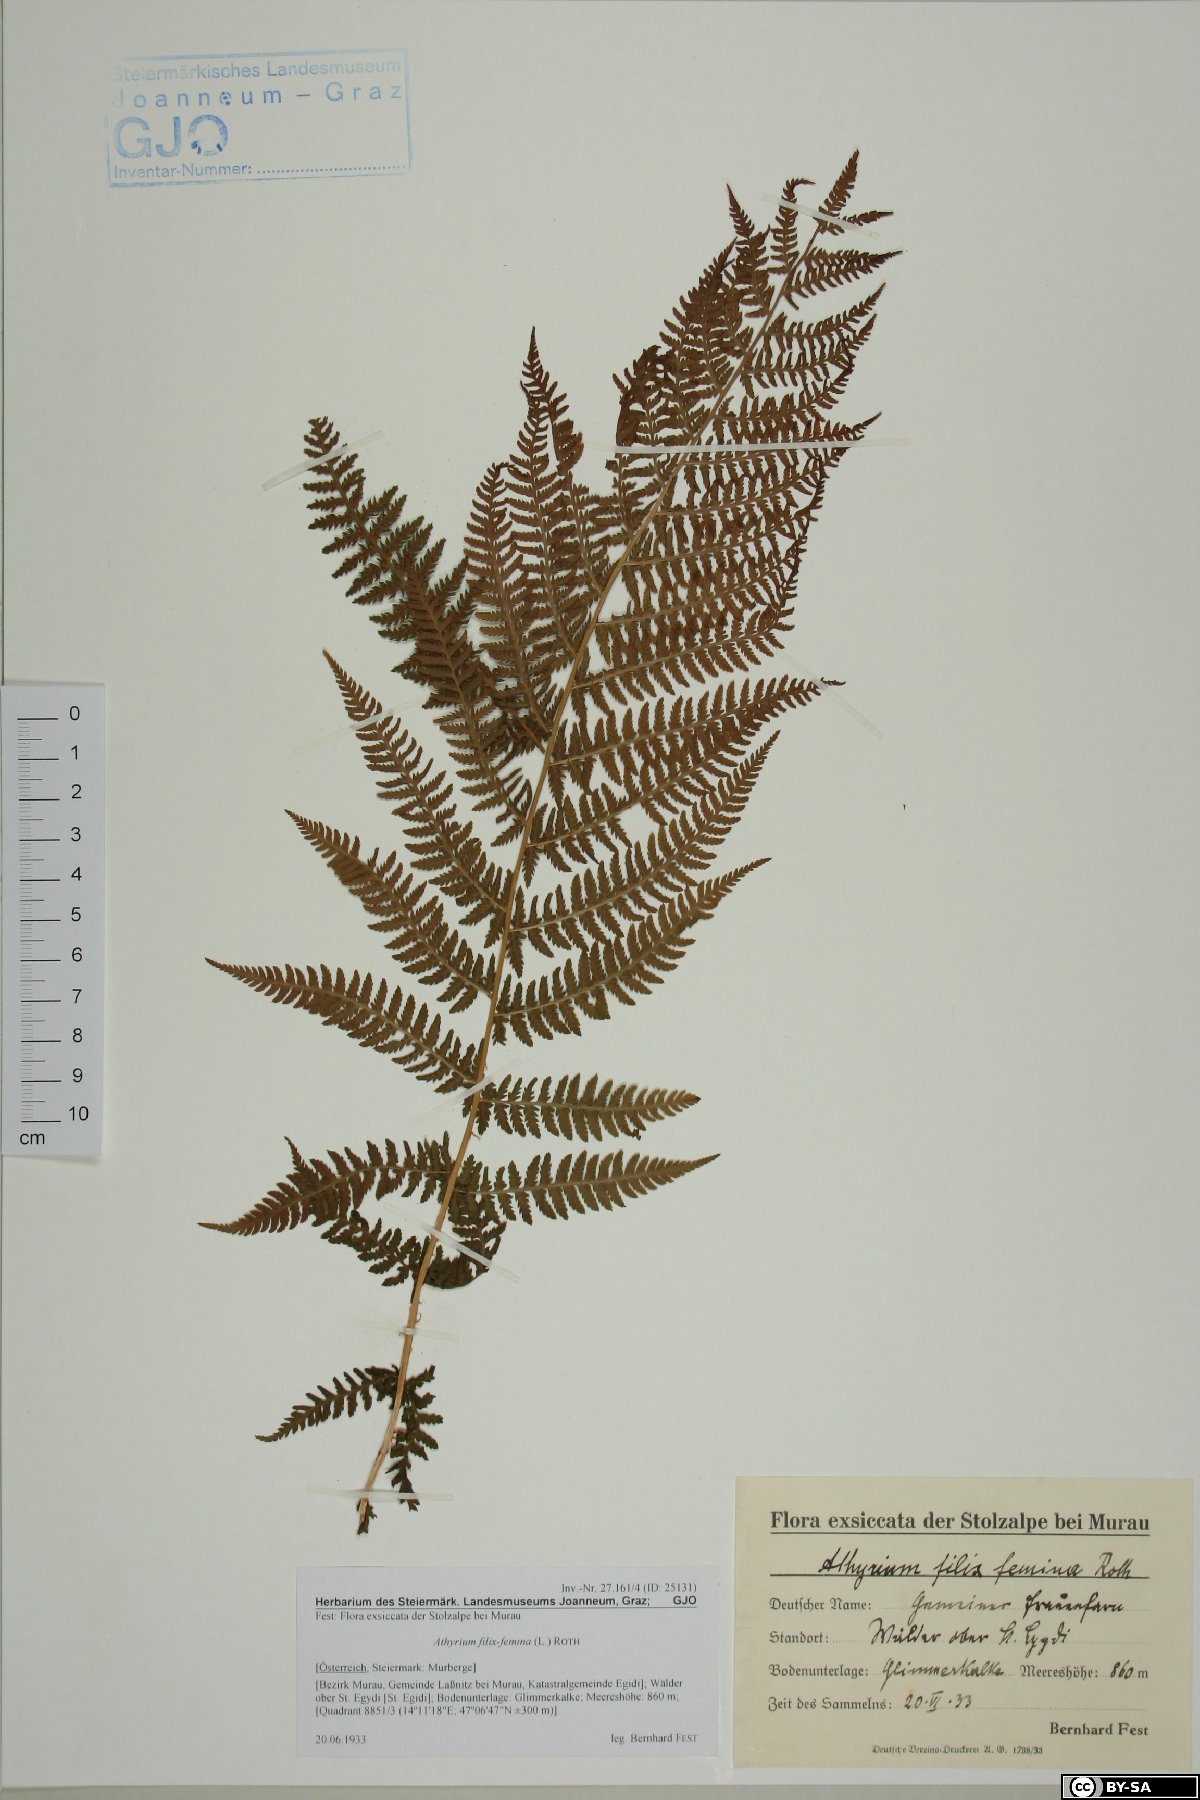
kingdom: Plantae
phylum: Tracheophyta
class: Polypodiopsida
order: Polypodiales
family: Athyriaceae
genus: Athyrium
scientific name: Athyrium filix-femina
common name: Lady fern
